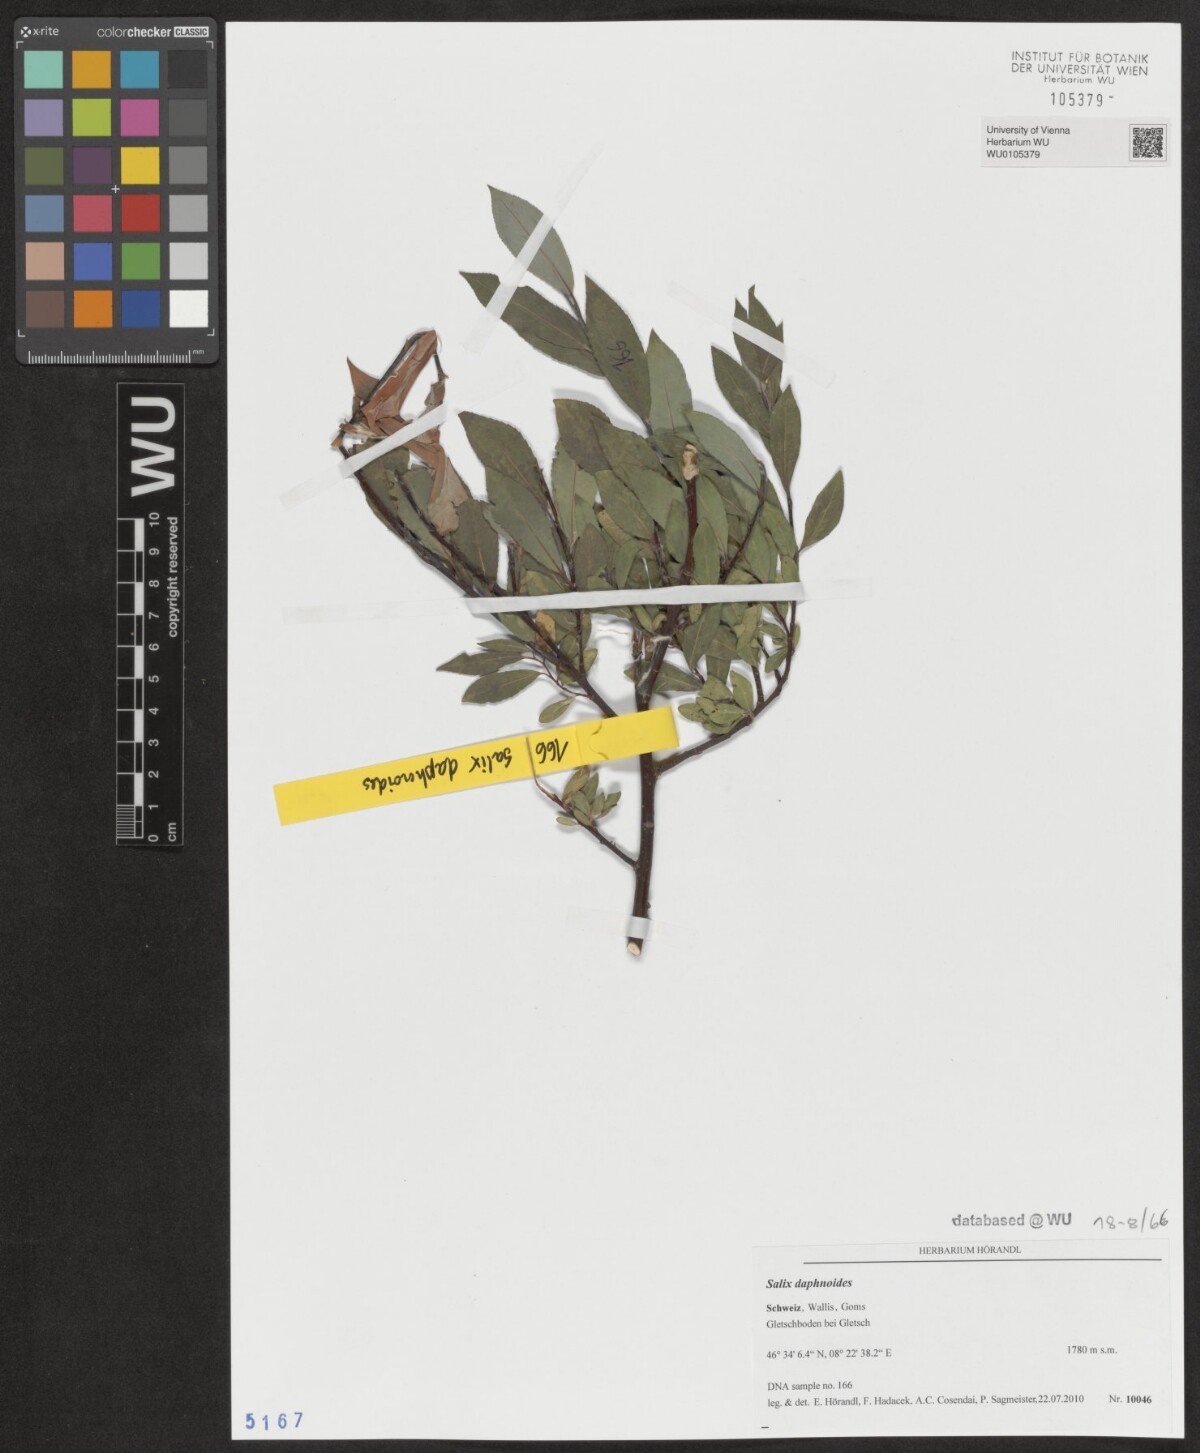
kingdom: Plantae
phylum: Tracheophyta
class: Magnoliopsida
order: Malpighiales
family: Salicaceae
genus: Salix
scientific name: Salix daphnoides
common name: European violet-willow
